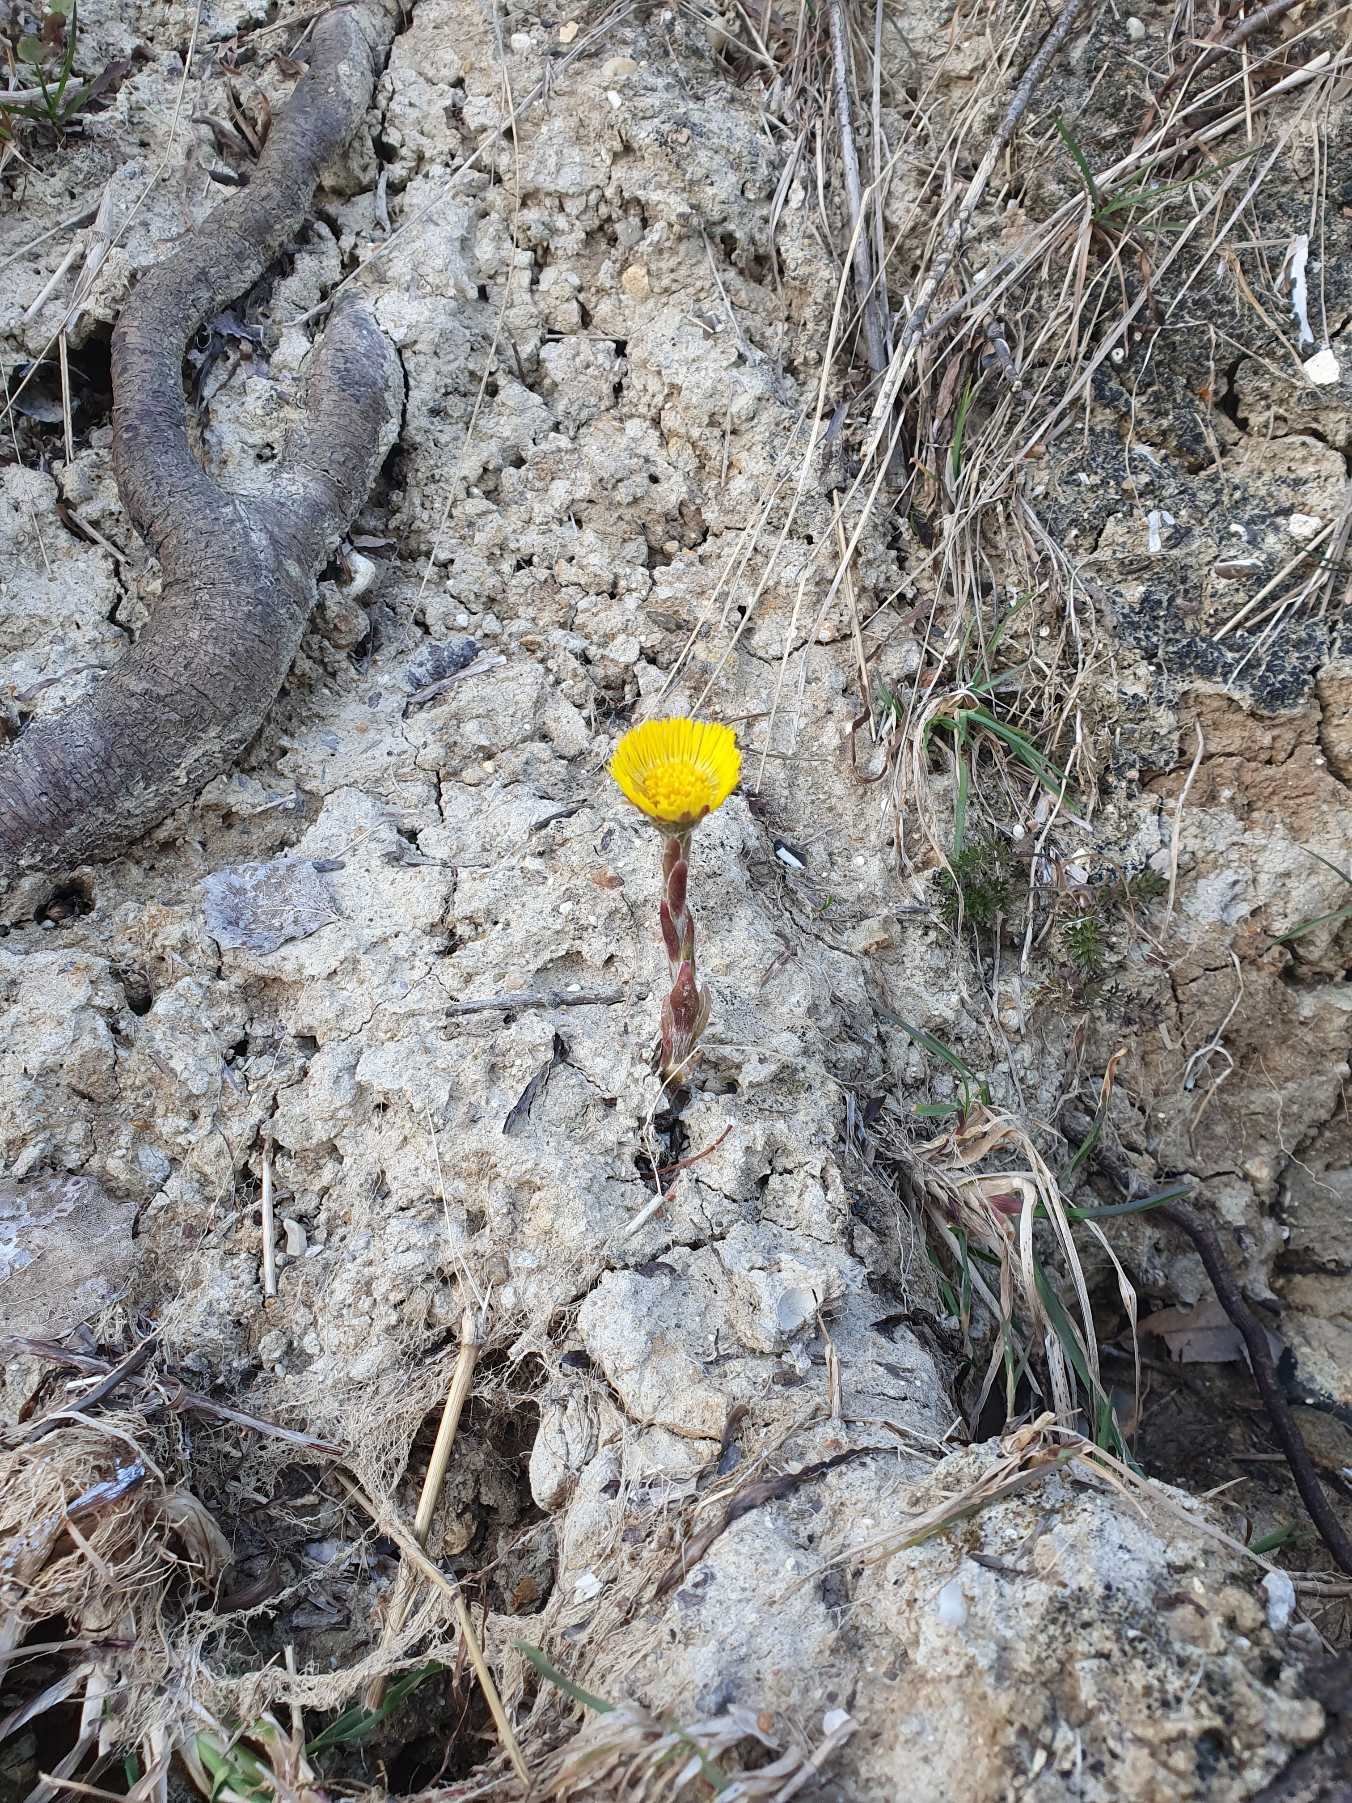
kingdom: Plantae
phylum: Tracheophyta
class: Magnoliopsida
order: Asterales
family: Asteraceae
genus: Tussilago
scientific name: Tussilago farfara
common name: Følfod
